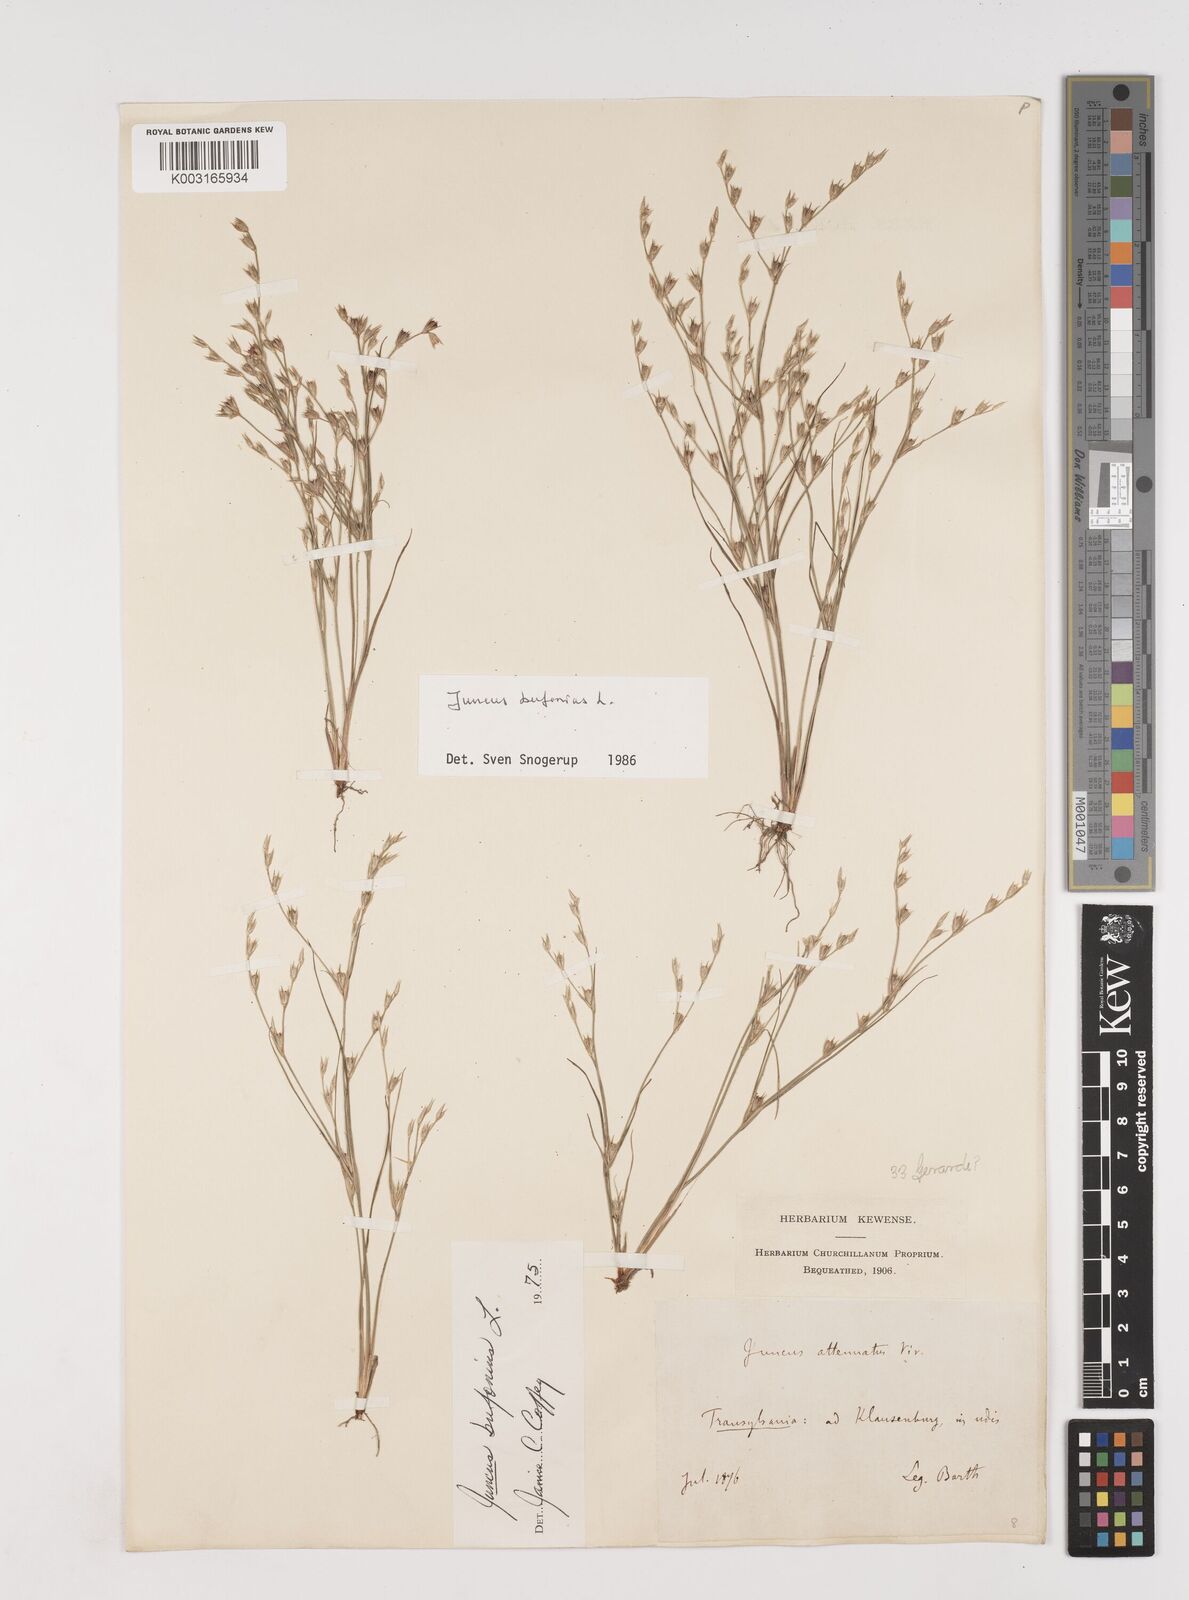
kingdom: Plantae
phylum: Tracheophyta
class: Liliopsida
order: Poales
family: Juncaceae
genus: Juncus
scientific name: Juncus bufonius
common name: Toad rush
